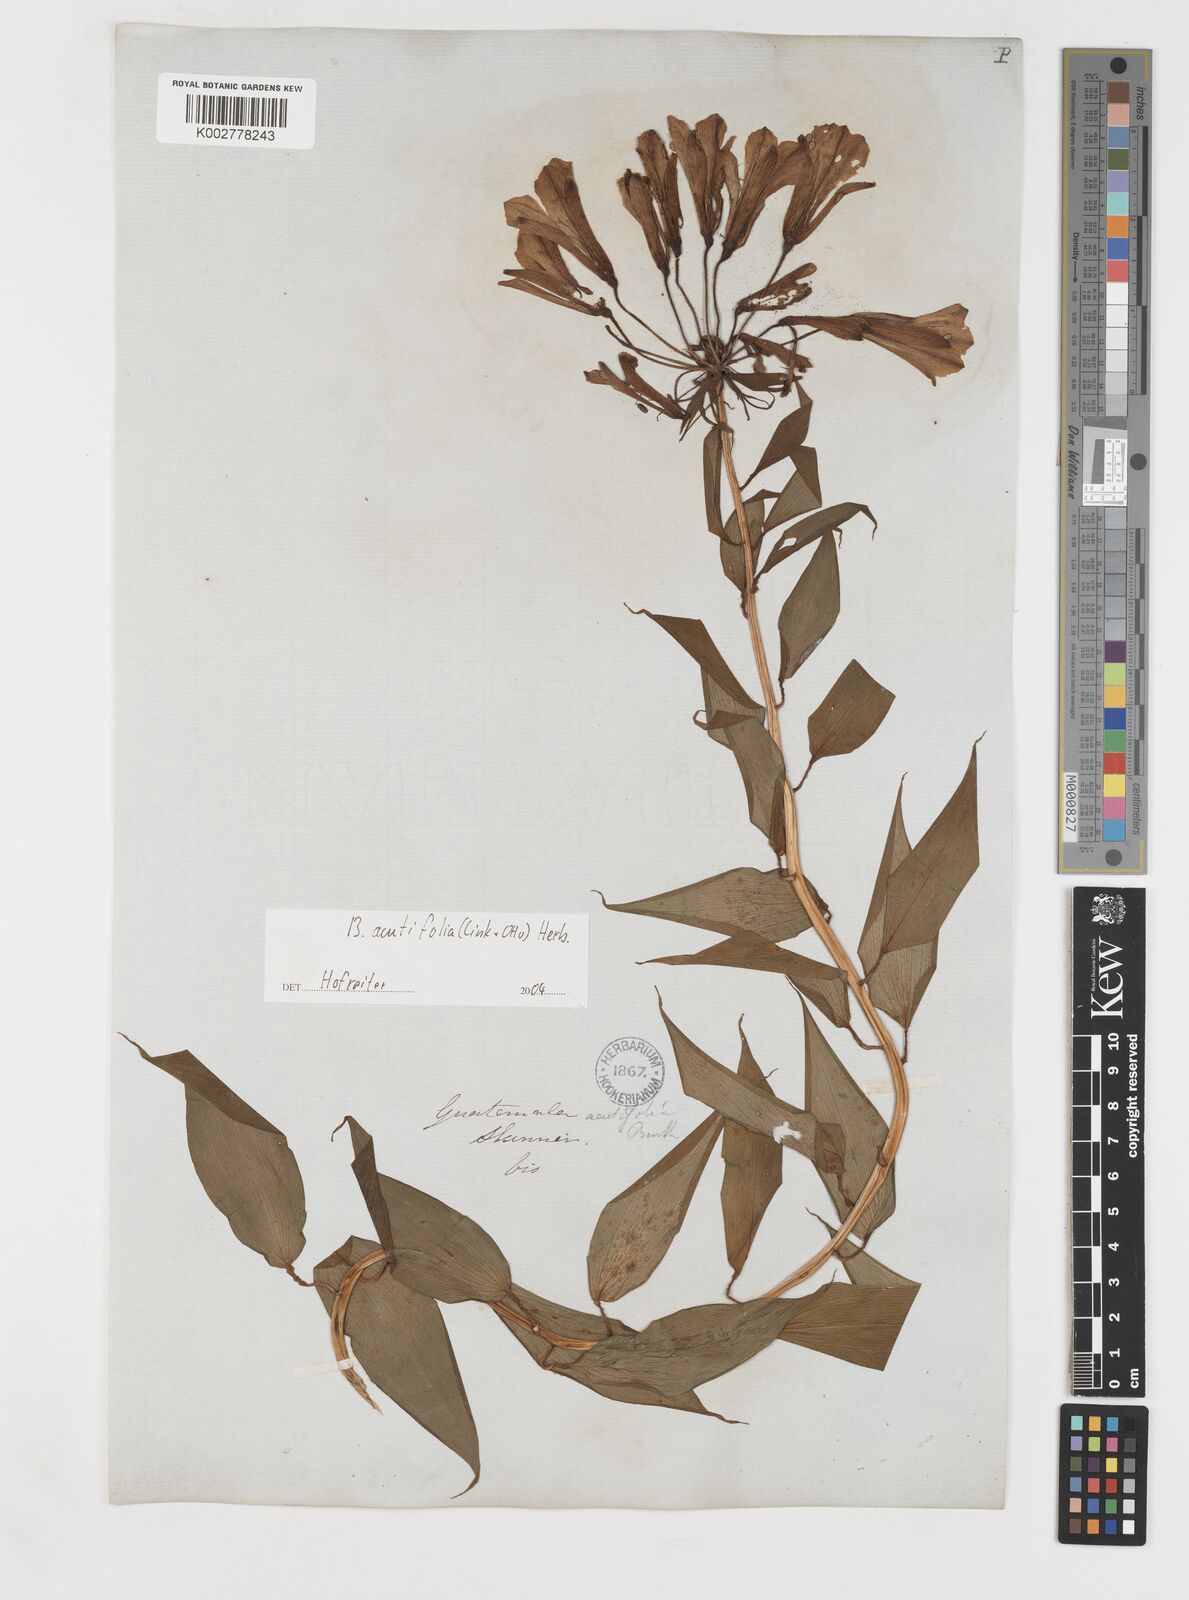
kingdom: Plantae
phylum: Tracheophyta
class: Liliopsida
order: Liliales
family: Alstroemeriaceae
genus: Bomarea
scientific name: Bomarea acutifolia
